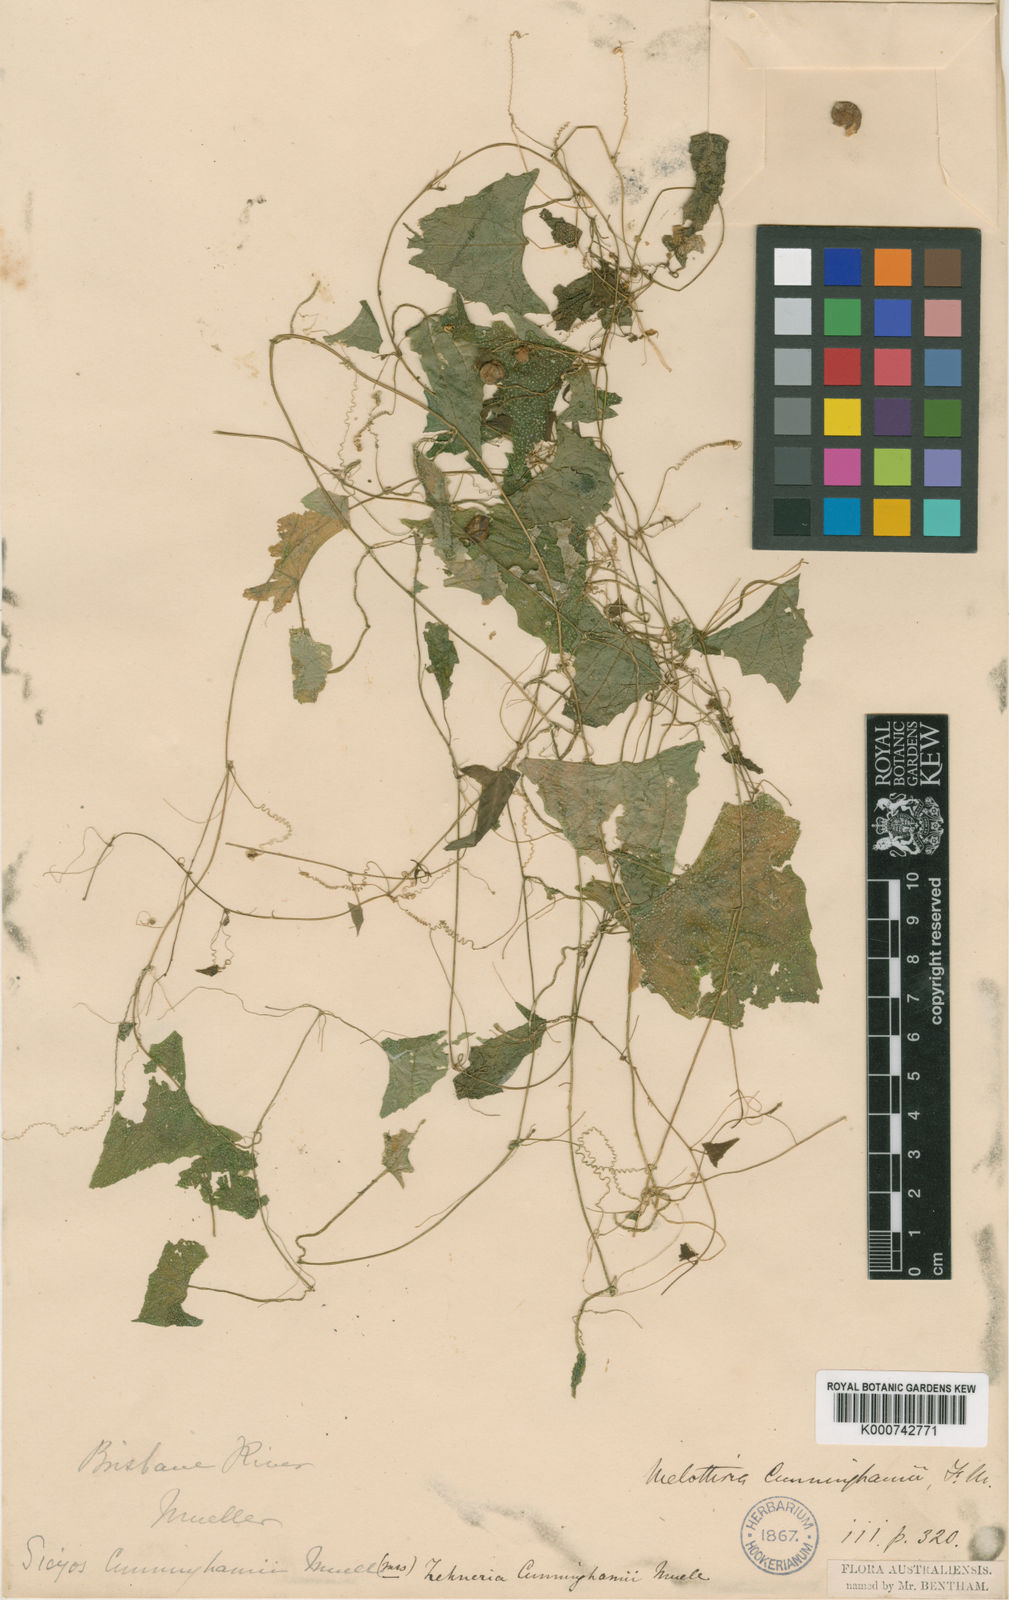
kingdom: Plantae
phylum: Tracheophyta
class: Magnoliopsida
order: Cucurbitales
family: Cucurbitaceae
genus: Zehneria
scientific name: Zehneria cunninghamii
